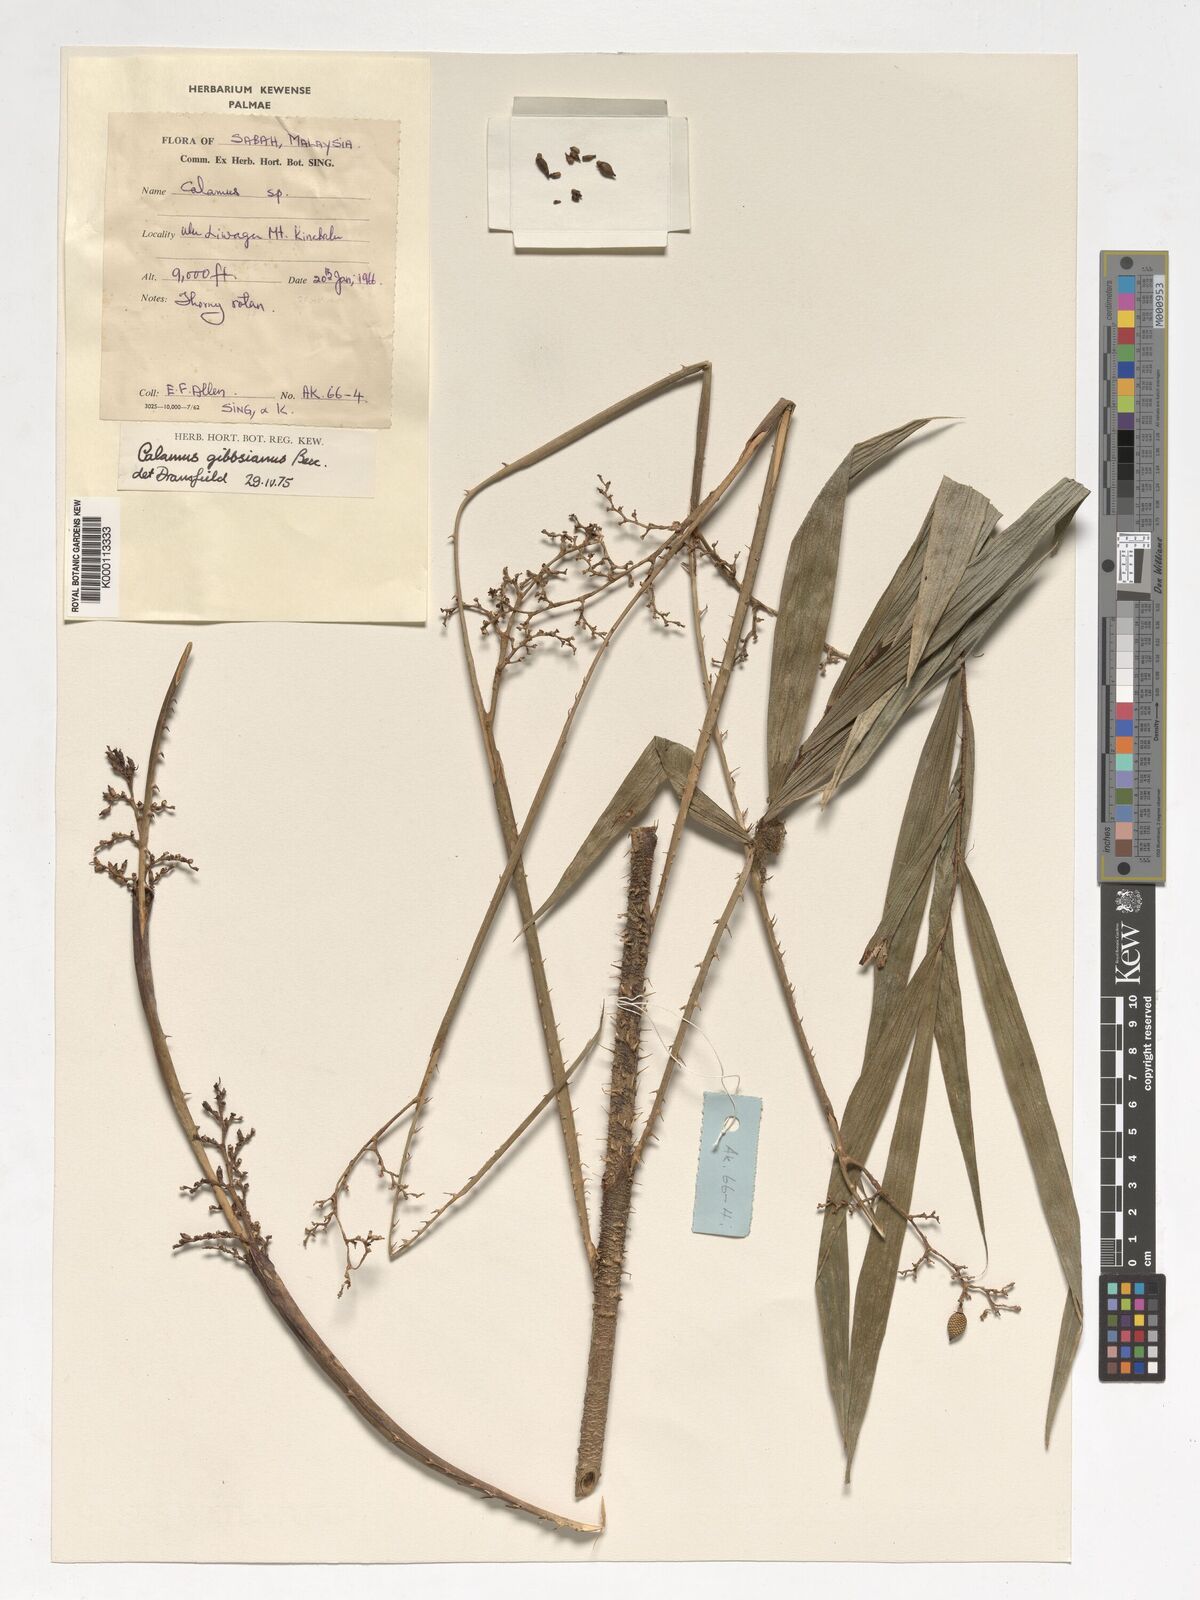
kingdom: Plantae
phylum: Tracheophyta
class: Liliopsida
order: Arecales
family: Arecaceae
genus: Calamus
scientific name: Calamus gibbsianus
